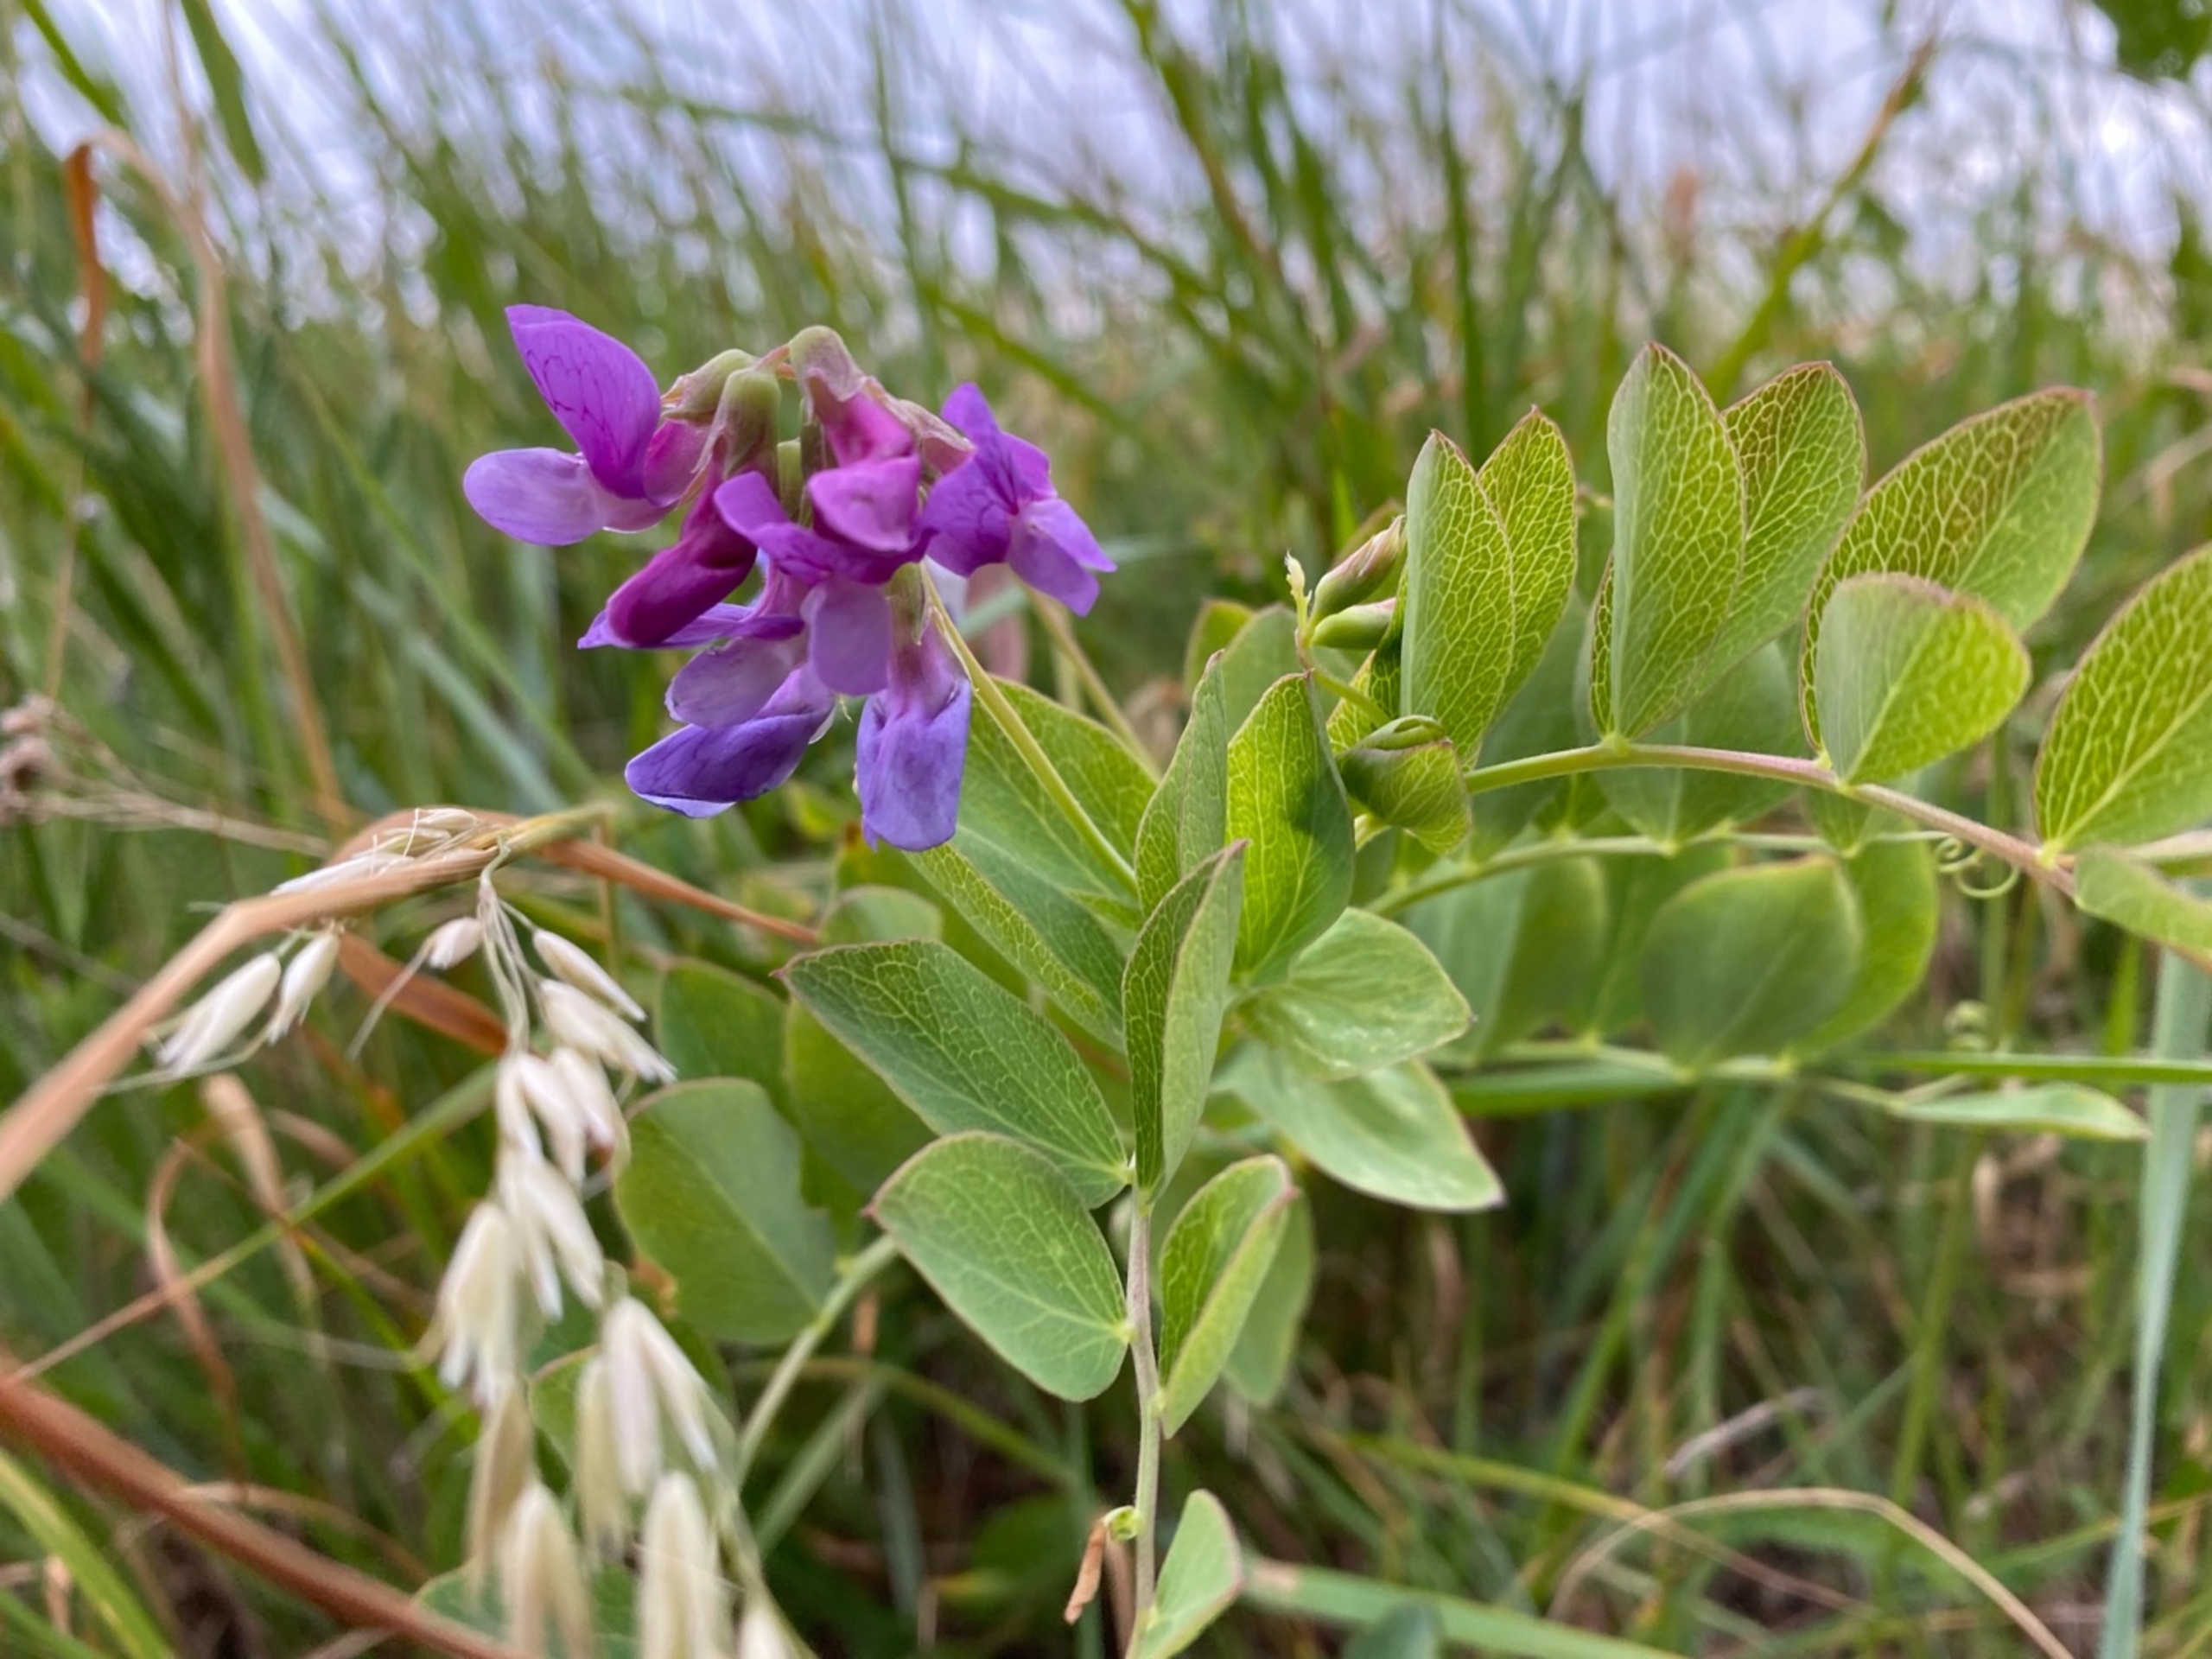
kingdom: Plantae
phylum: Tracheophyta
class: Magnoliopsida
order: Fabales
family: Fabaceae
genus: Lathyrus
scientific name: Lathyrus japonicus
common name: Strand-fladbælg
